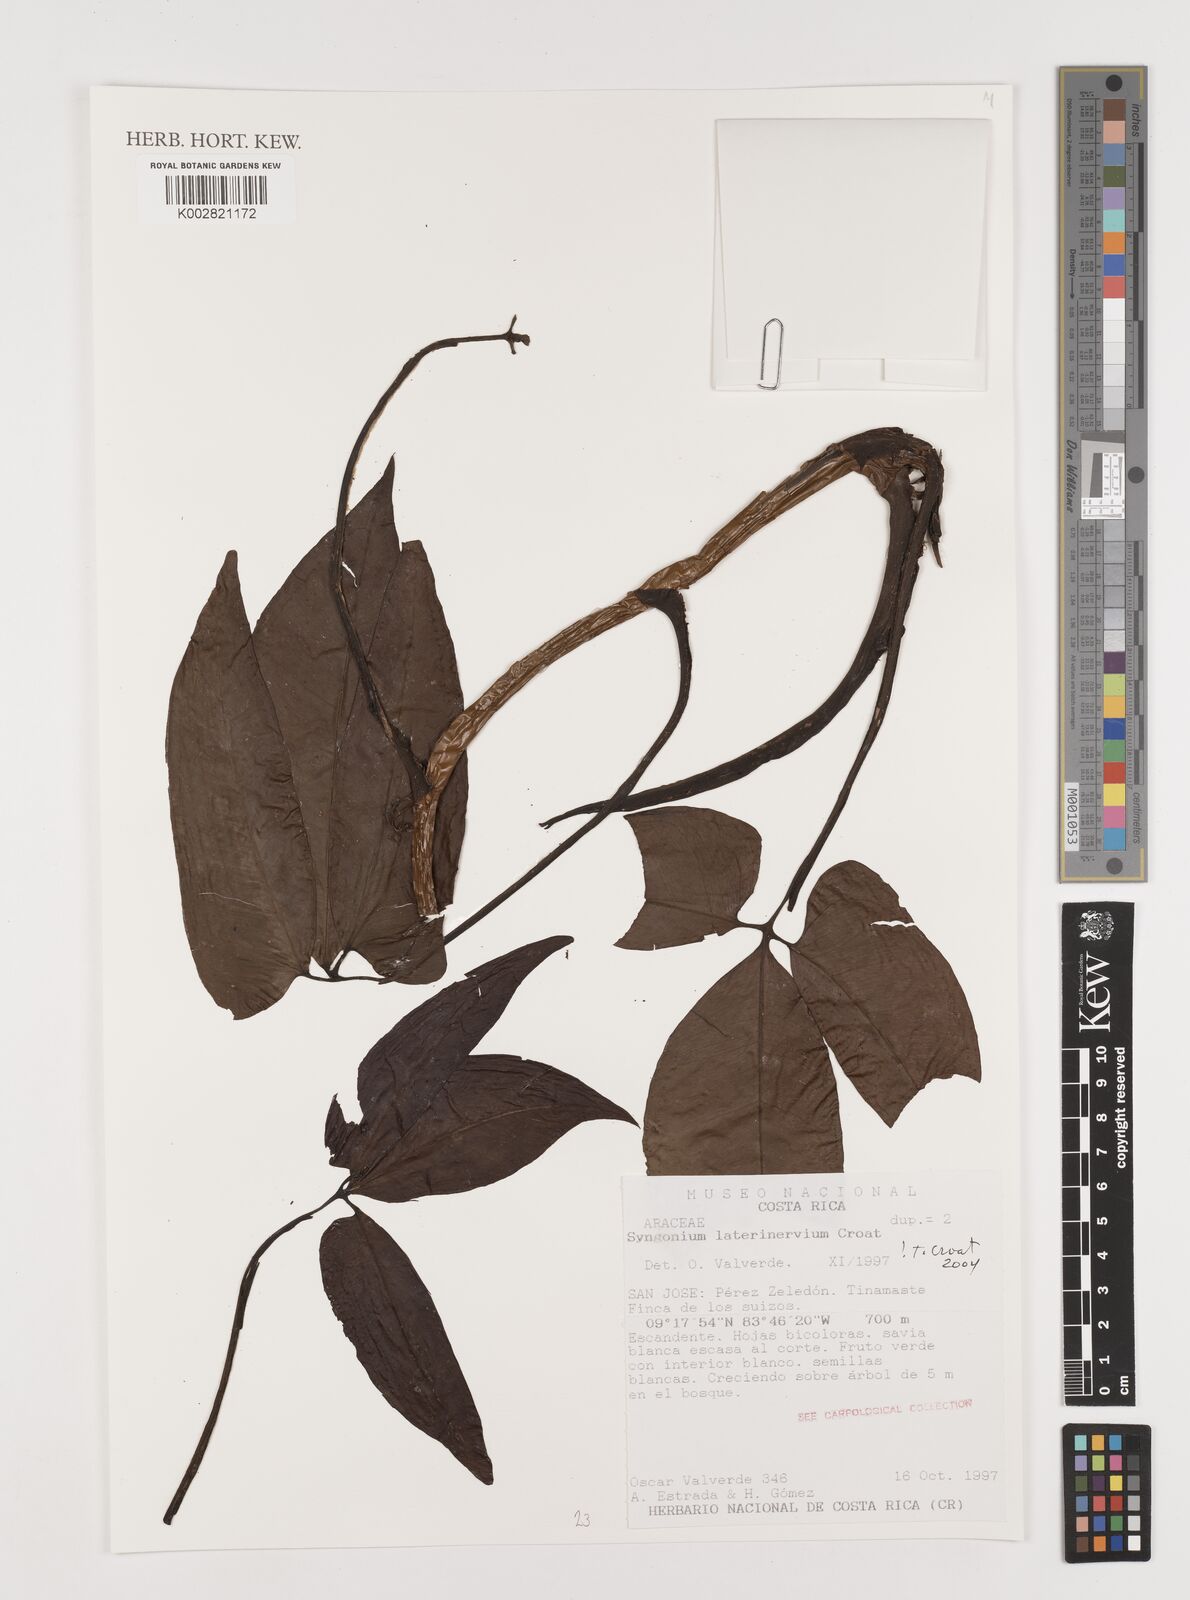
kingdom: Plantae
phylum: Tracheophyta
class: Liliopsida
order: Alismatales
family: Araceae
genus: Syngonium
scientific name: Syngonium laterinervium
